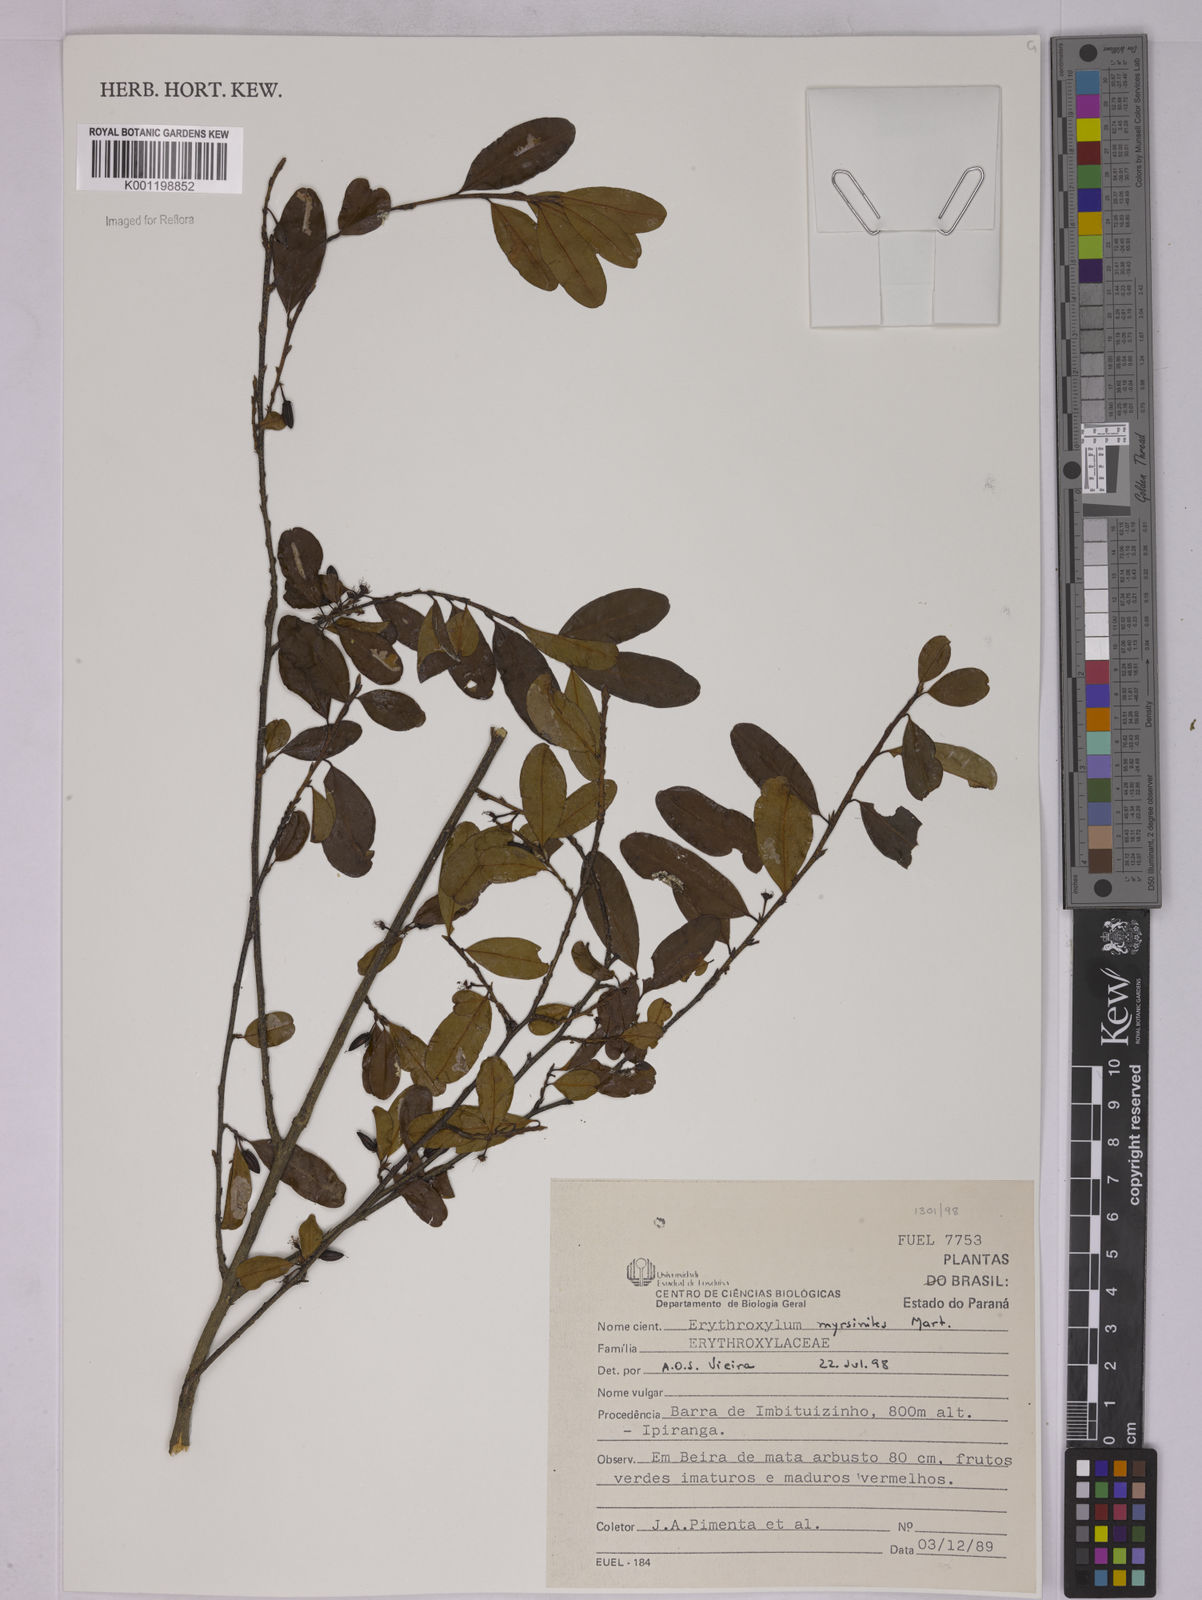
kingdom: Plantae
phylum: Tracheophyta
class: Magnoliopsida
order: Malpighiales
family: Erythroxylaceae
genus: Erythroxylum
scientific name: Erythroxylum myrsinites
